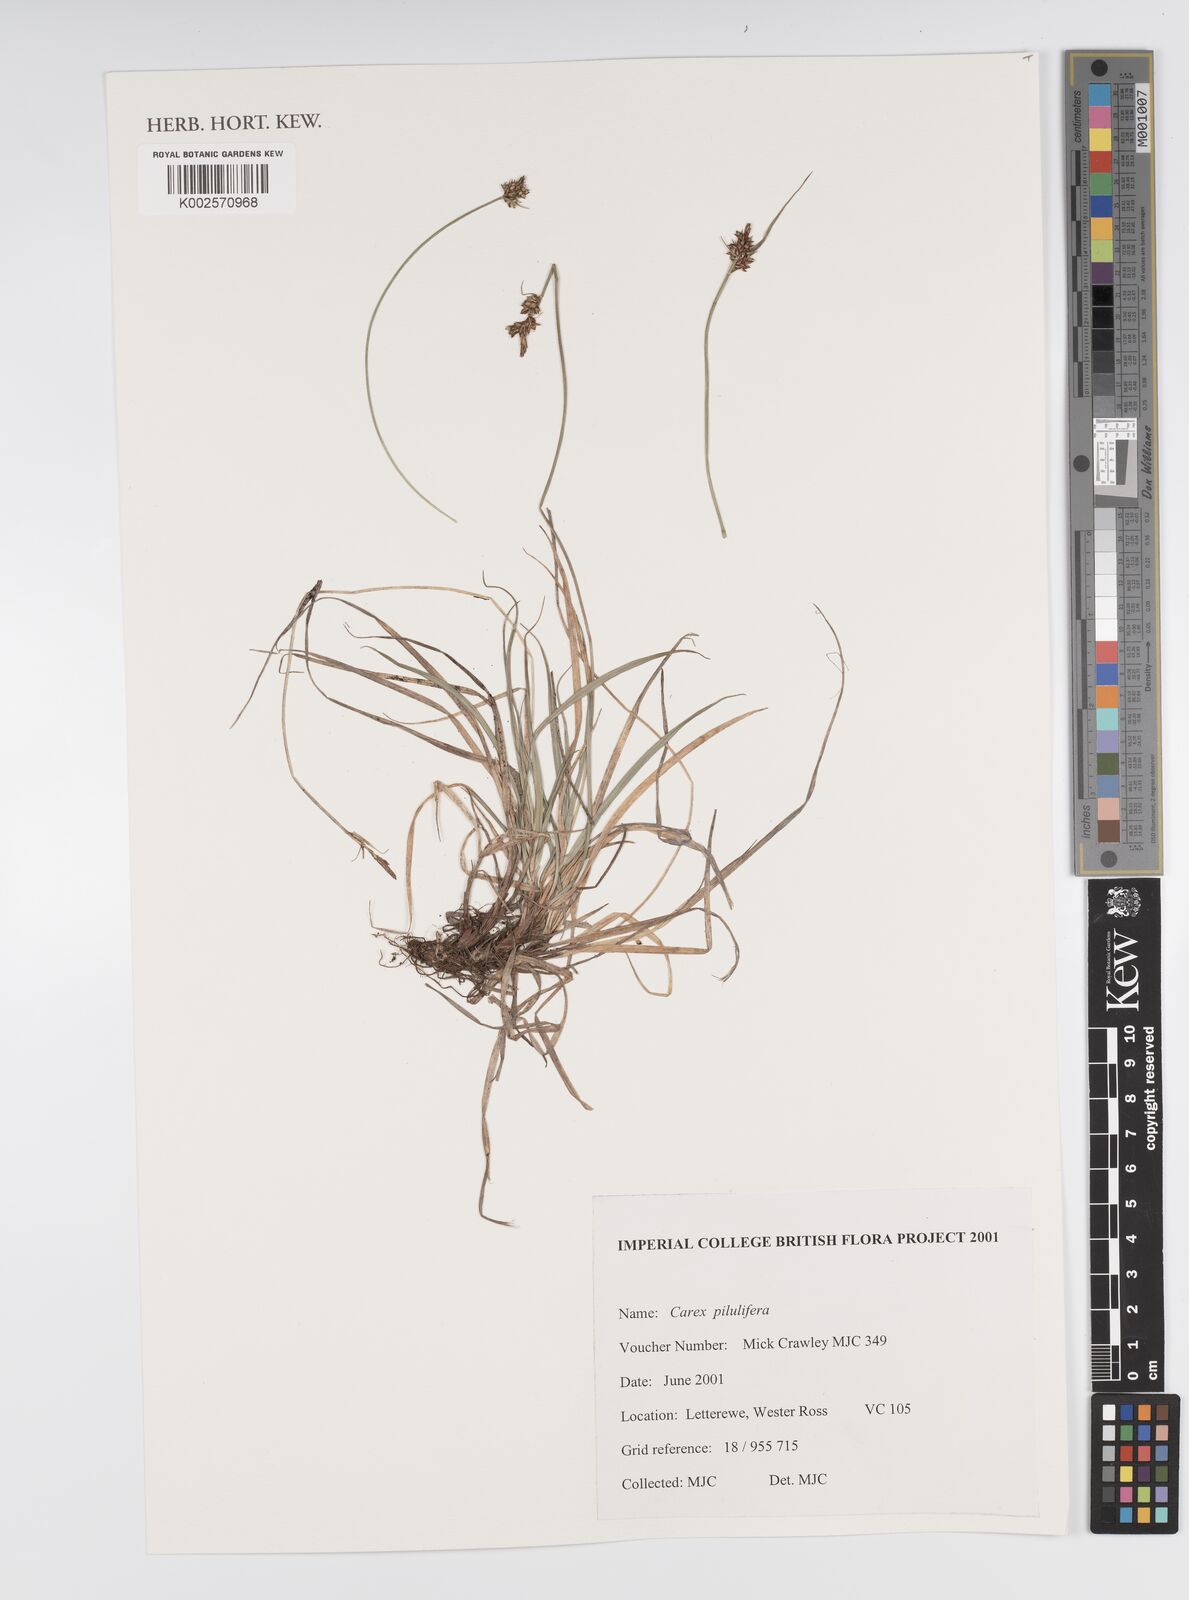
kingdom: Plantae
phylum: Tracheophyta
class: Liliopsida
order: Poales
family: Cyperaceae
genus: Carex
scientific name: Carex pilulifera
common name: Pill sedge
